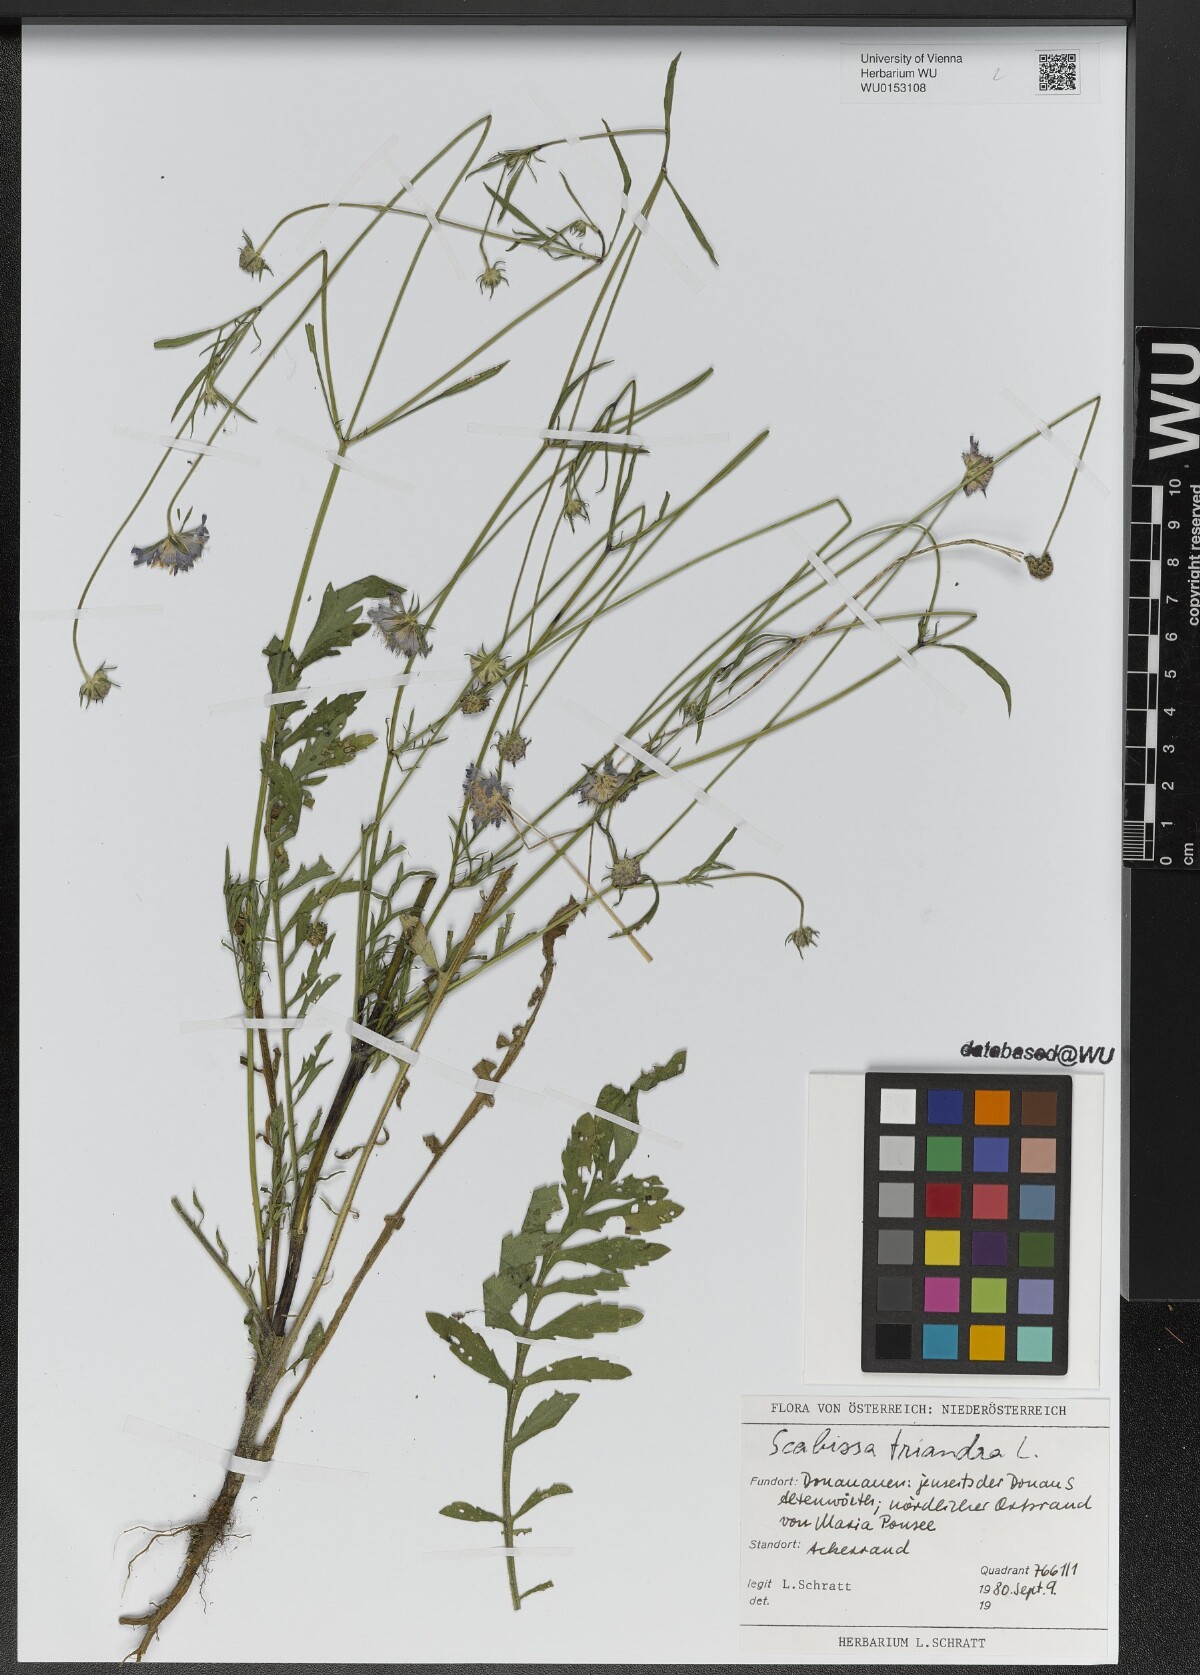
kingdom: Plantae
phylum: Tracheophyta
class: Magnoliopsida
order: Dipsacales
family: Caprifoliaceae
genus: Scabiosa
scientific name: Scabiosa triandra
